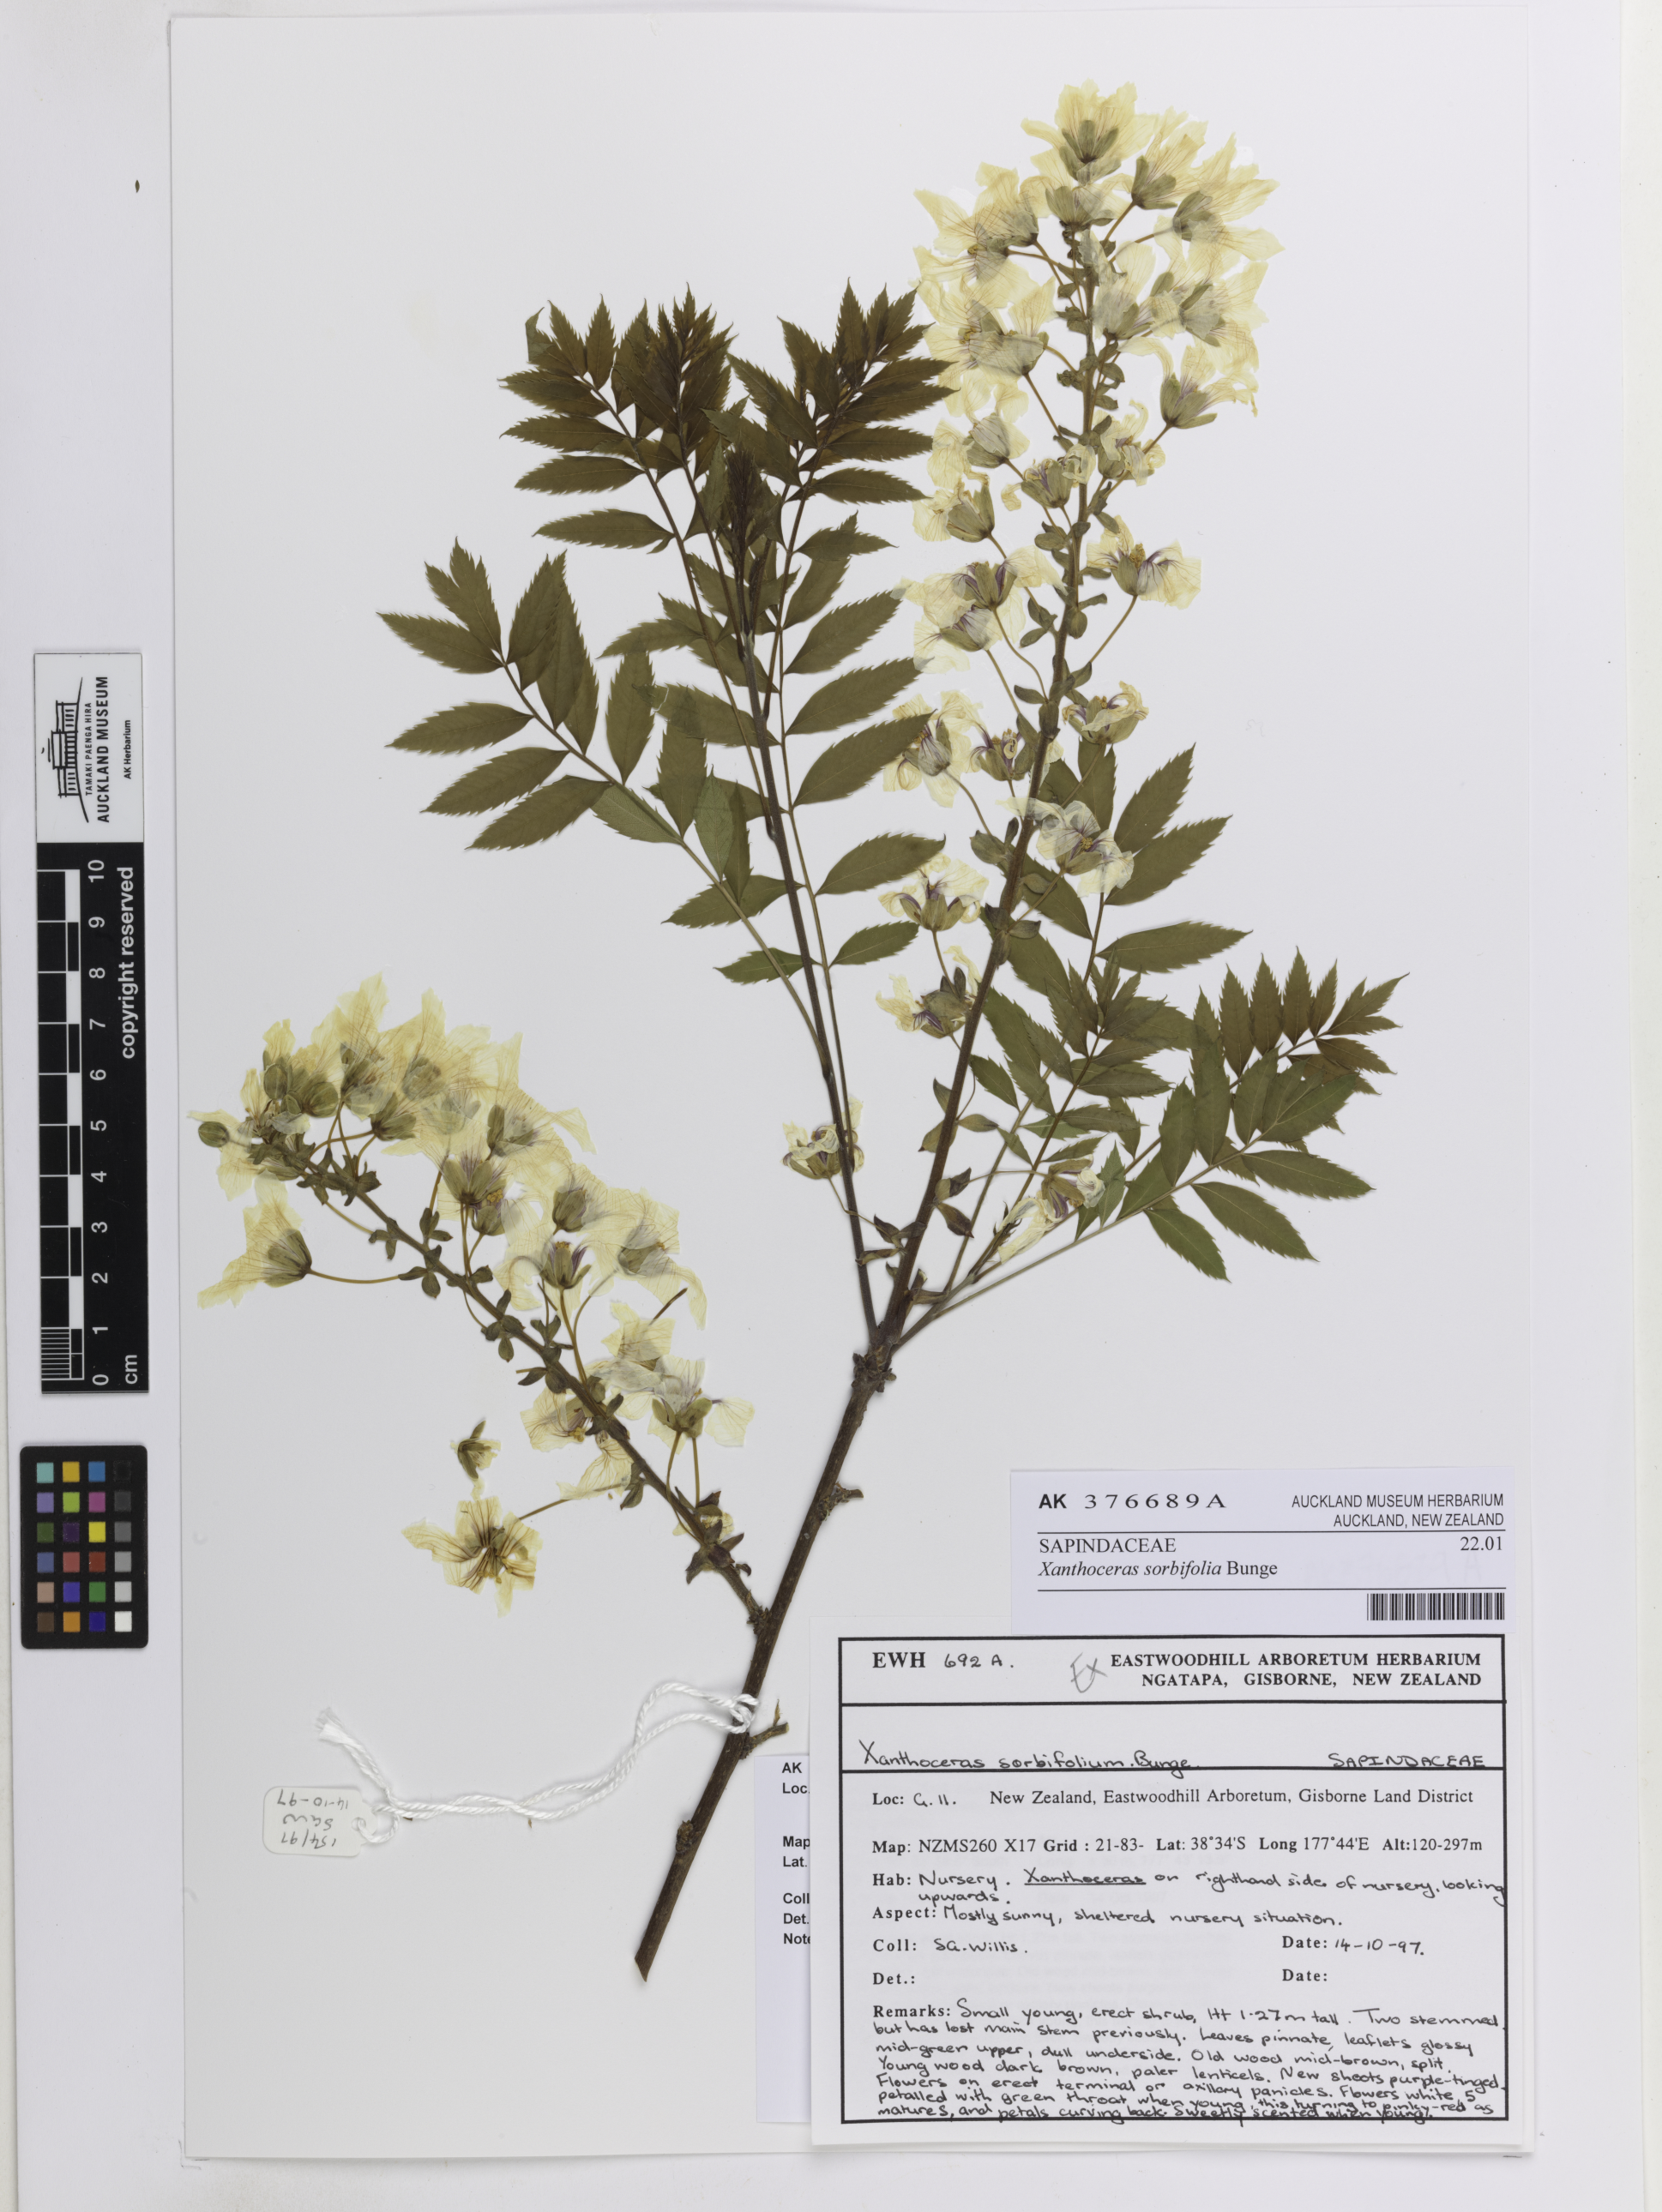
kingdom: Plantae
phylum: Tracheophyta
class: Magnoliopsida
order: Sapindales
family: Sapindaceae
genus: Xanthoceras
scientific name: Xanthoceras sorbifolia
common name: Yellow-horn
